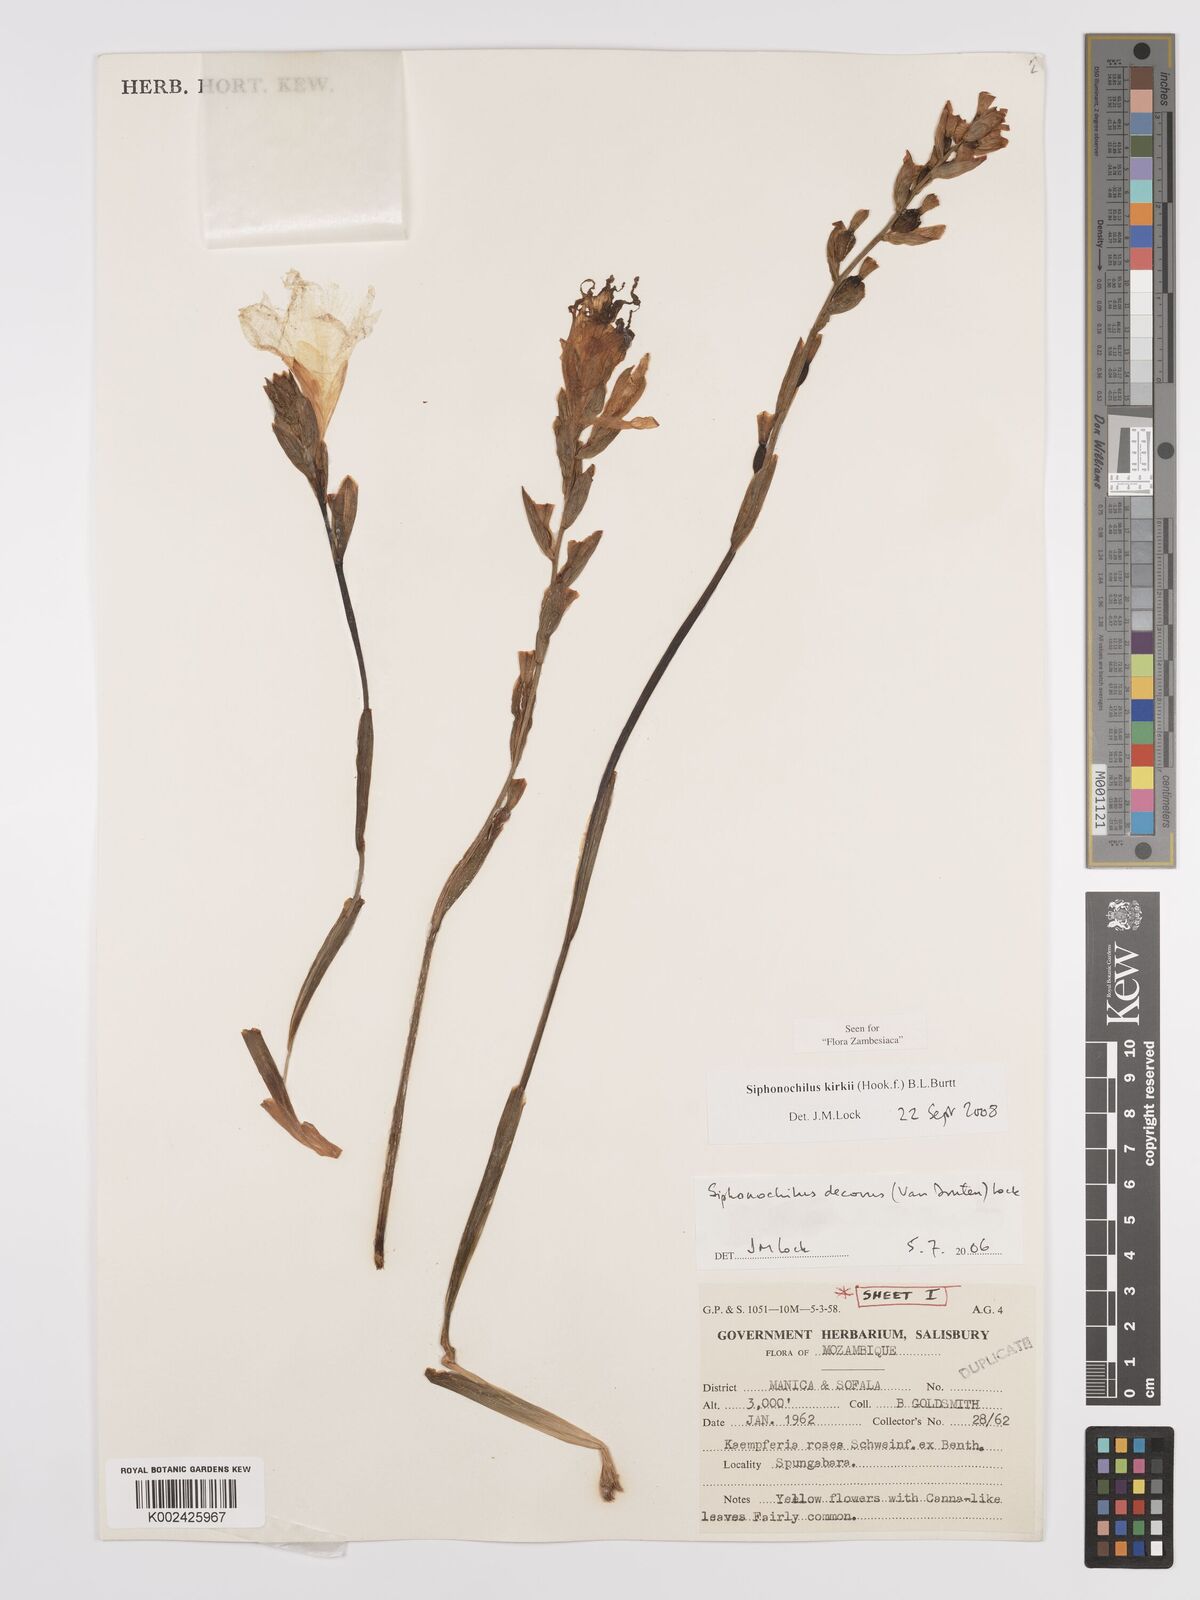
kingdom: Plantae
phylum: Tracheophyta
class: Liliopsida
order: Zingiberales
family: Zingiberaceae
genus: Siphonochilus
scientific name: Siphonochilus kirkii
